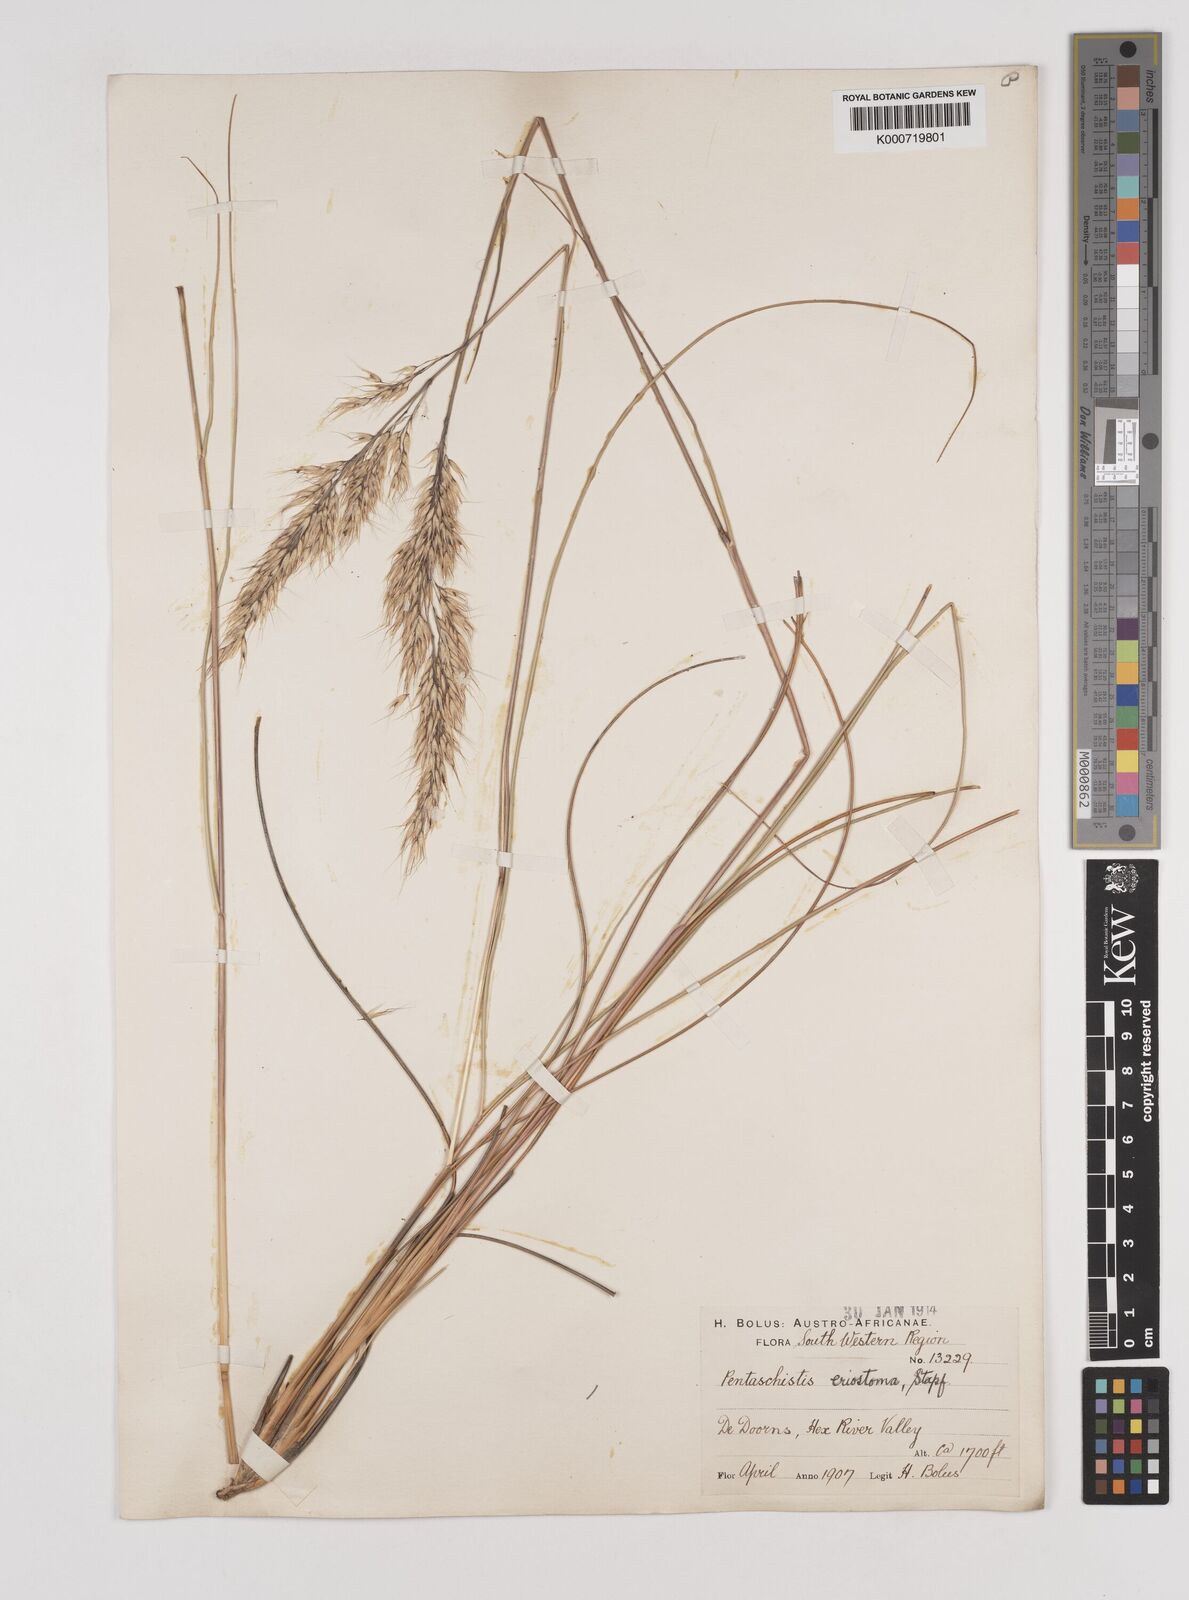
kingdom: Plantae
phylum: Tracheophyta
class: Liliopsida
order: Poales
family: Poaceae
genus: Pentameris
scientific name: Pentameris eriostoma
